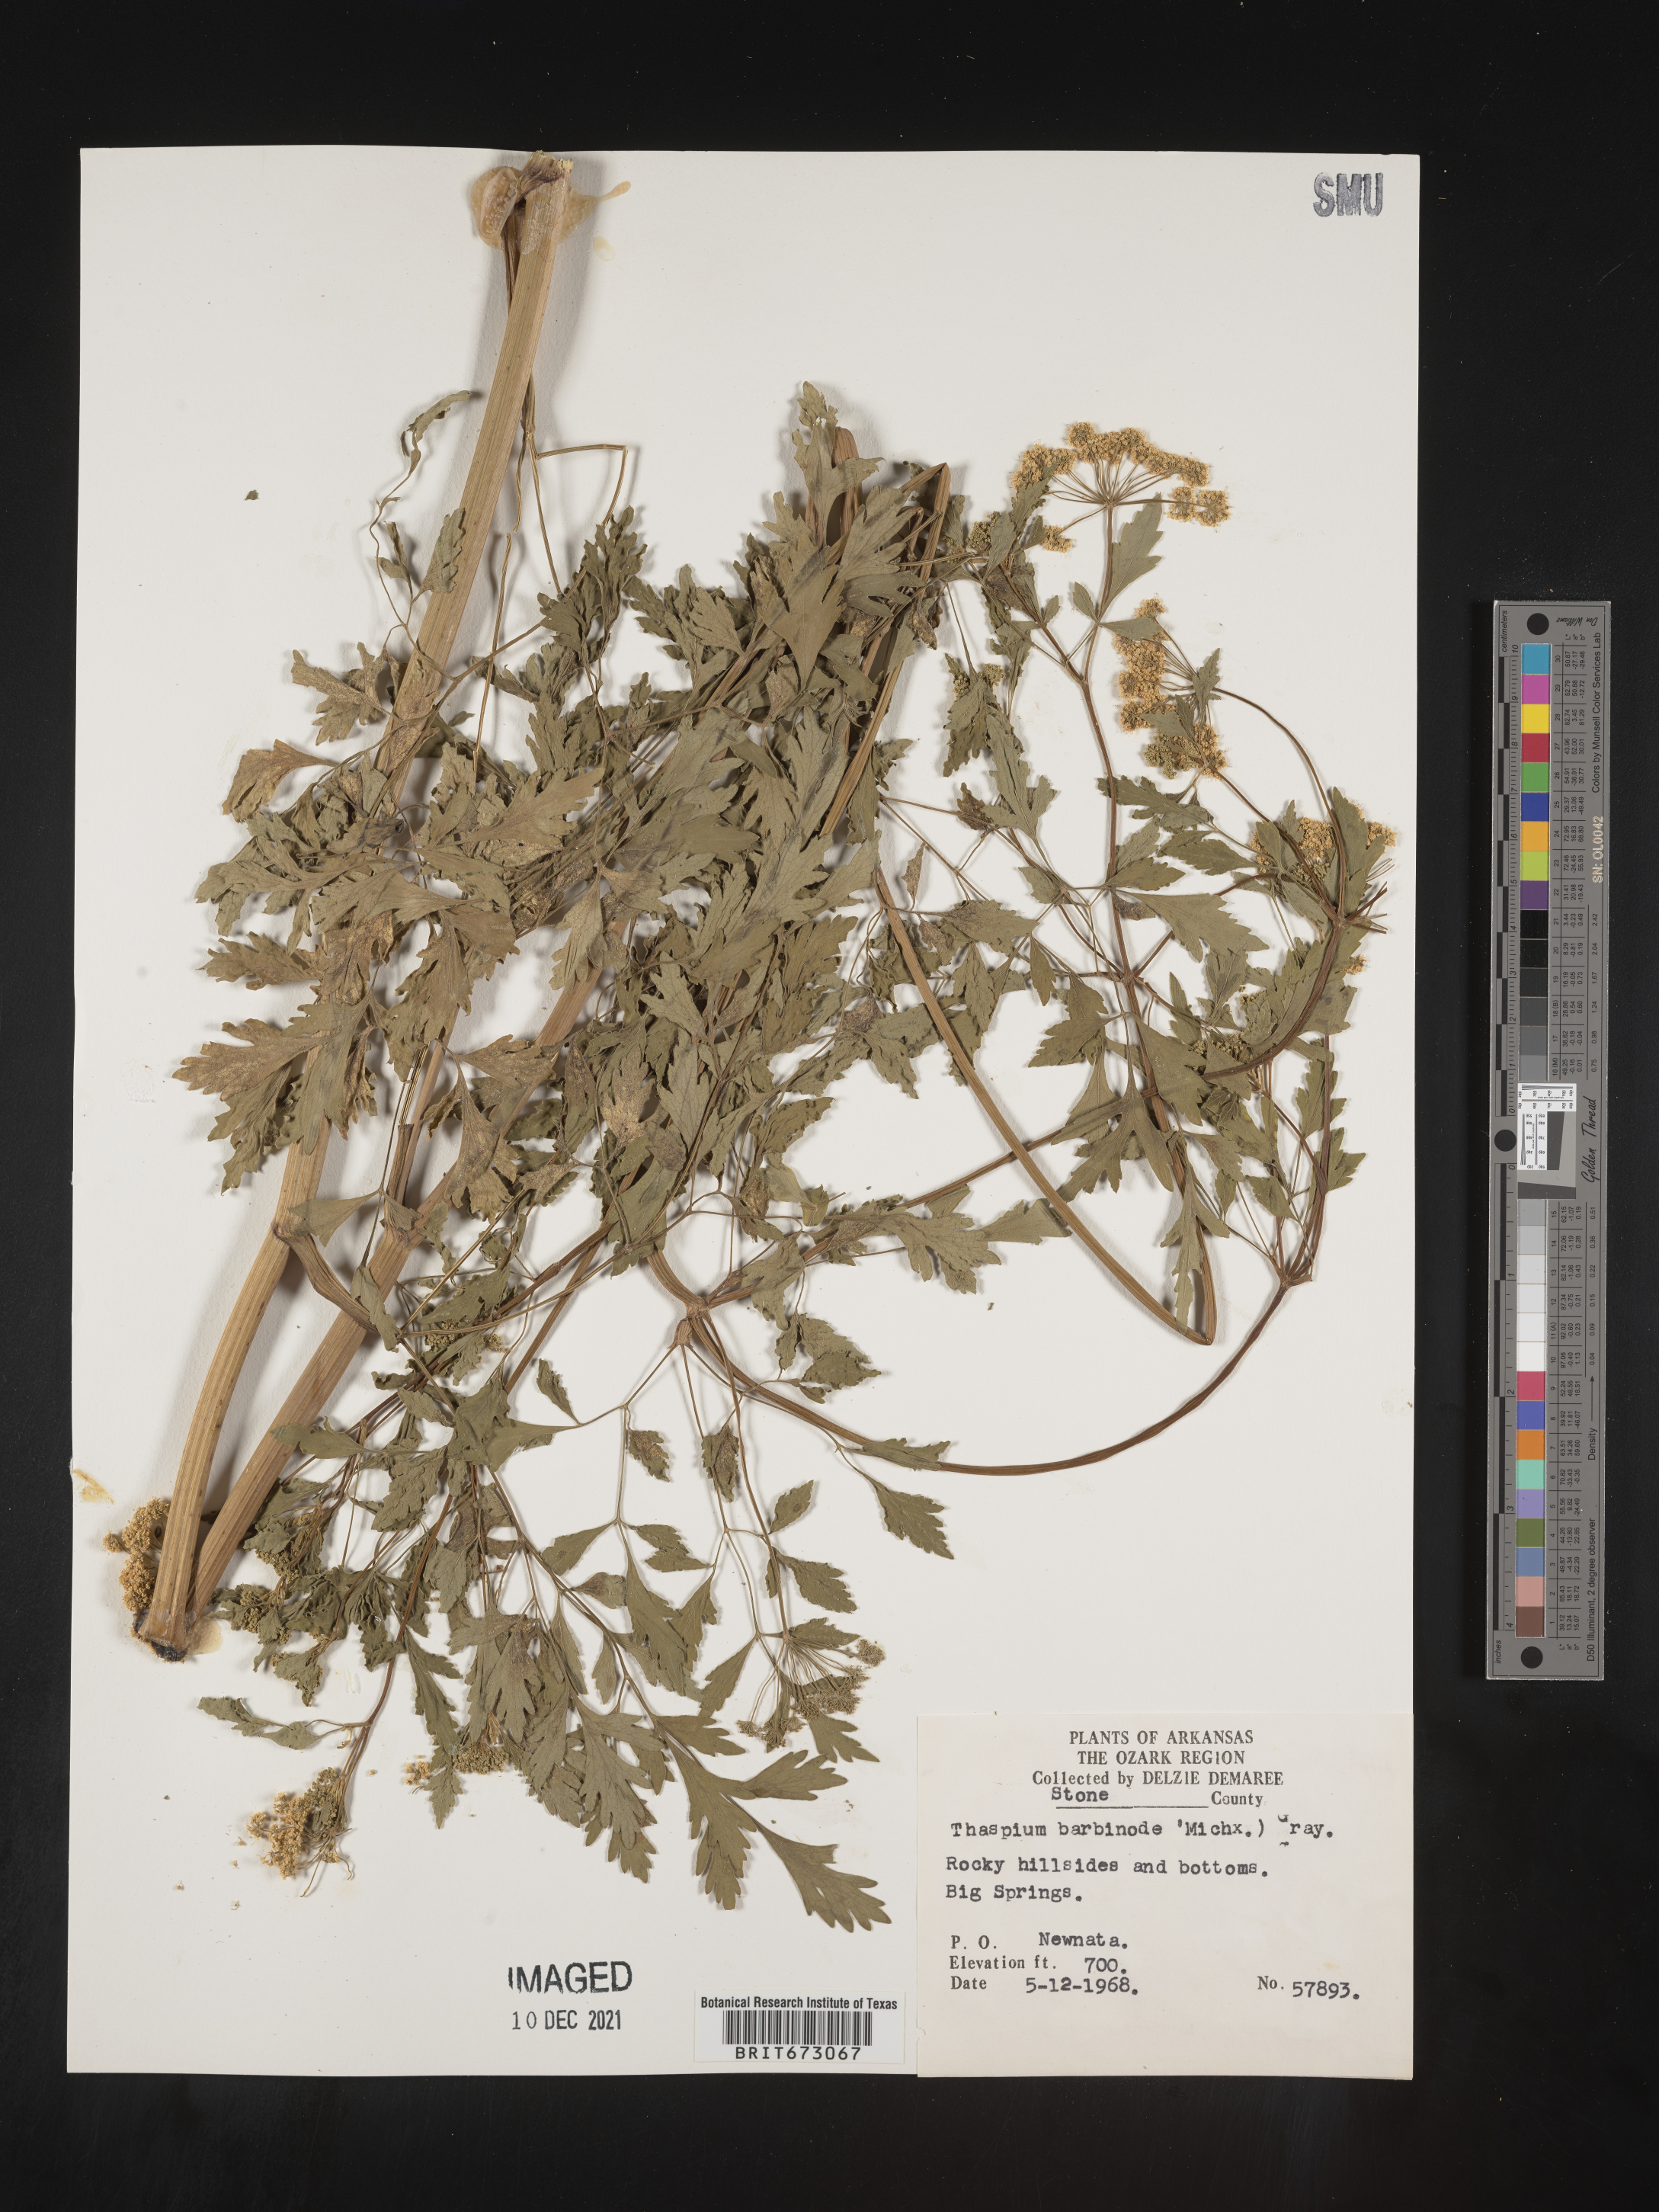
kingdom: Plantae
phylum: Tracheophyta
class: Magnoliopsida
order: Apiales
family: Apiaceae
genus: Thaspium
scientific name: Thaspium barbinode
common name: Bearded meadow-parsnip
